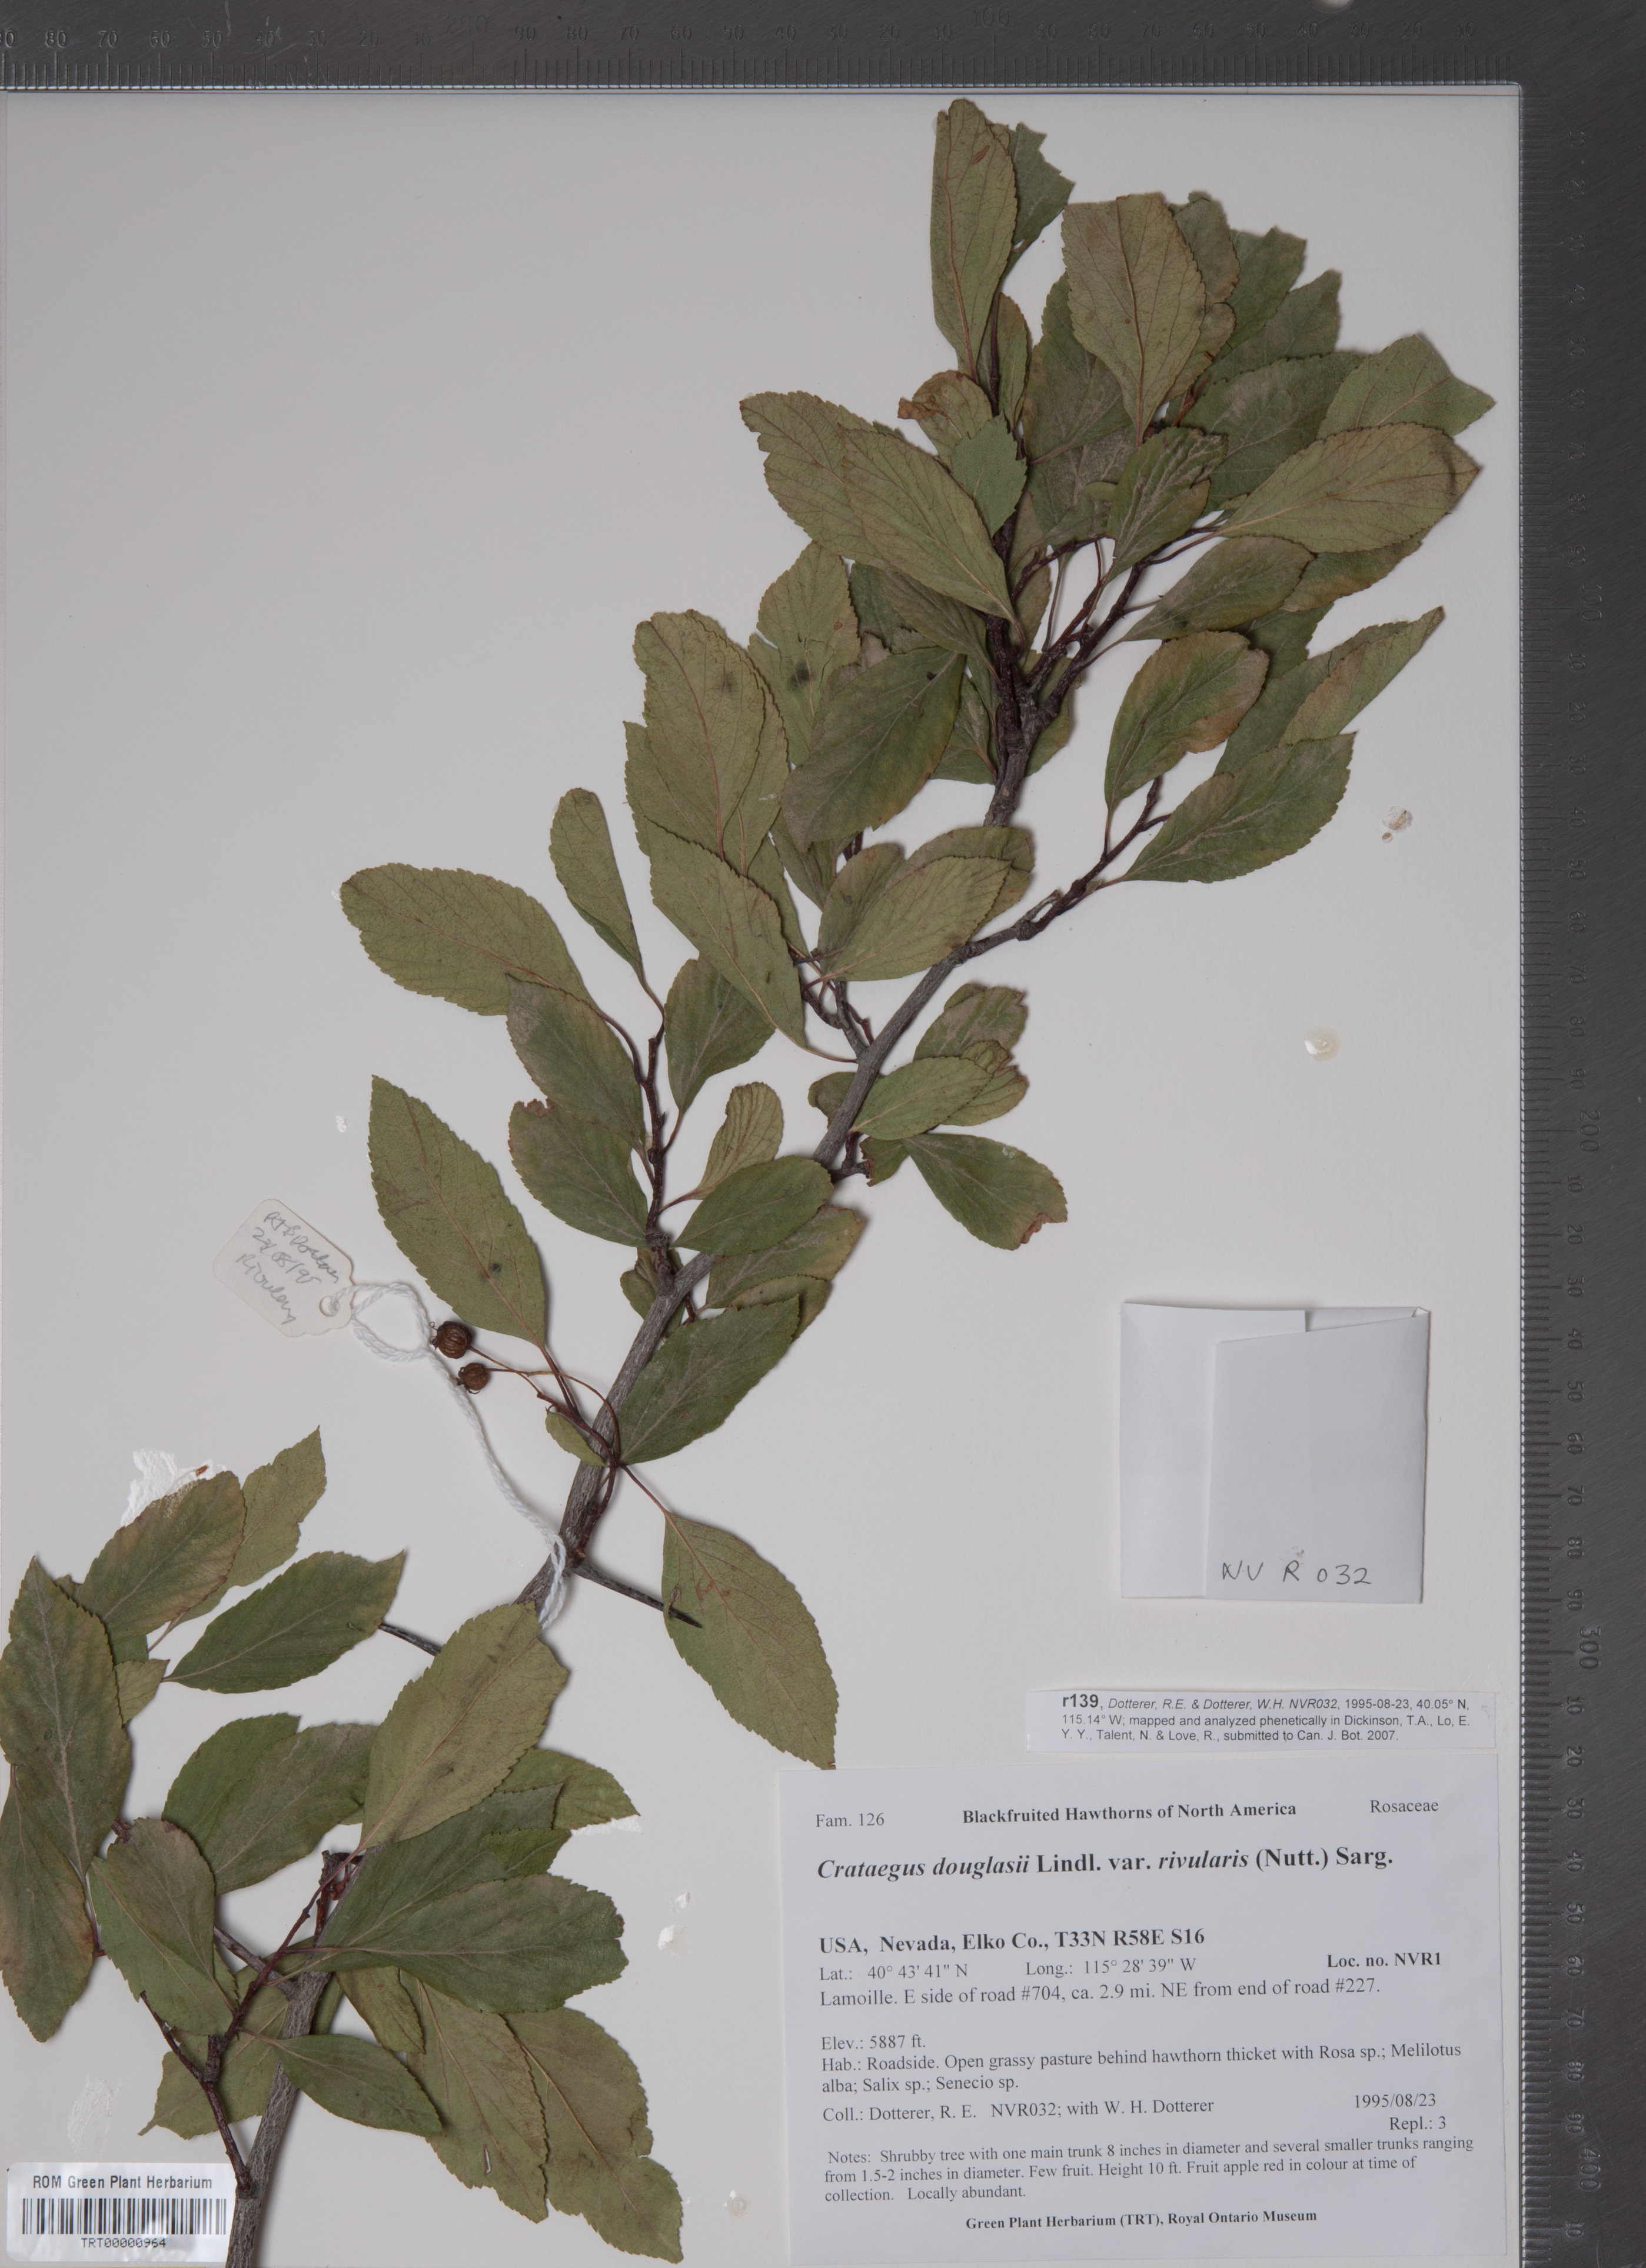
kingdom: Plantae
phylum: Tracheophyta
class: Magnoliopsida
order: Rosales
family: Rosaceae
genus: Crataegus
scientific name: Crataegus rivularis
